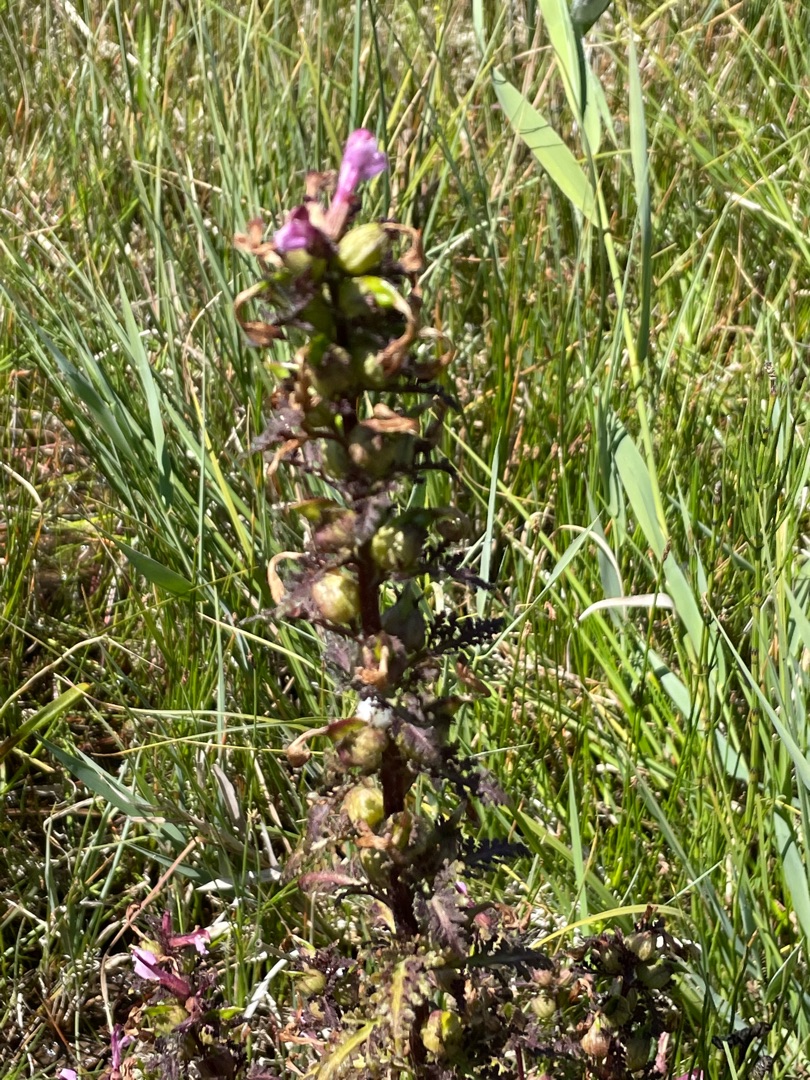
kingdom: Plantae
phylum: Tracheophyta
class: Magnoliopsida
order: Lamiales
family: Orobanchaceae
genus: Pedicularis
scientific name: Pedicularis palustris
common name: Eng-troldurt
